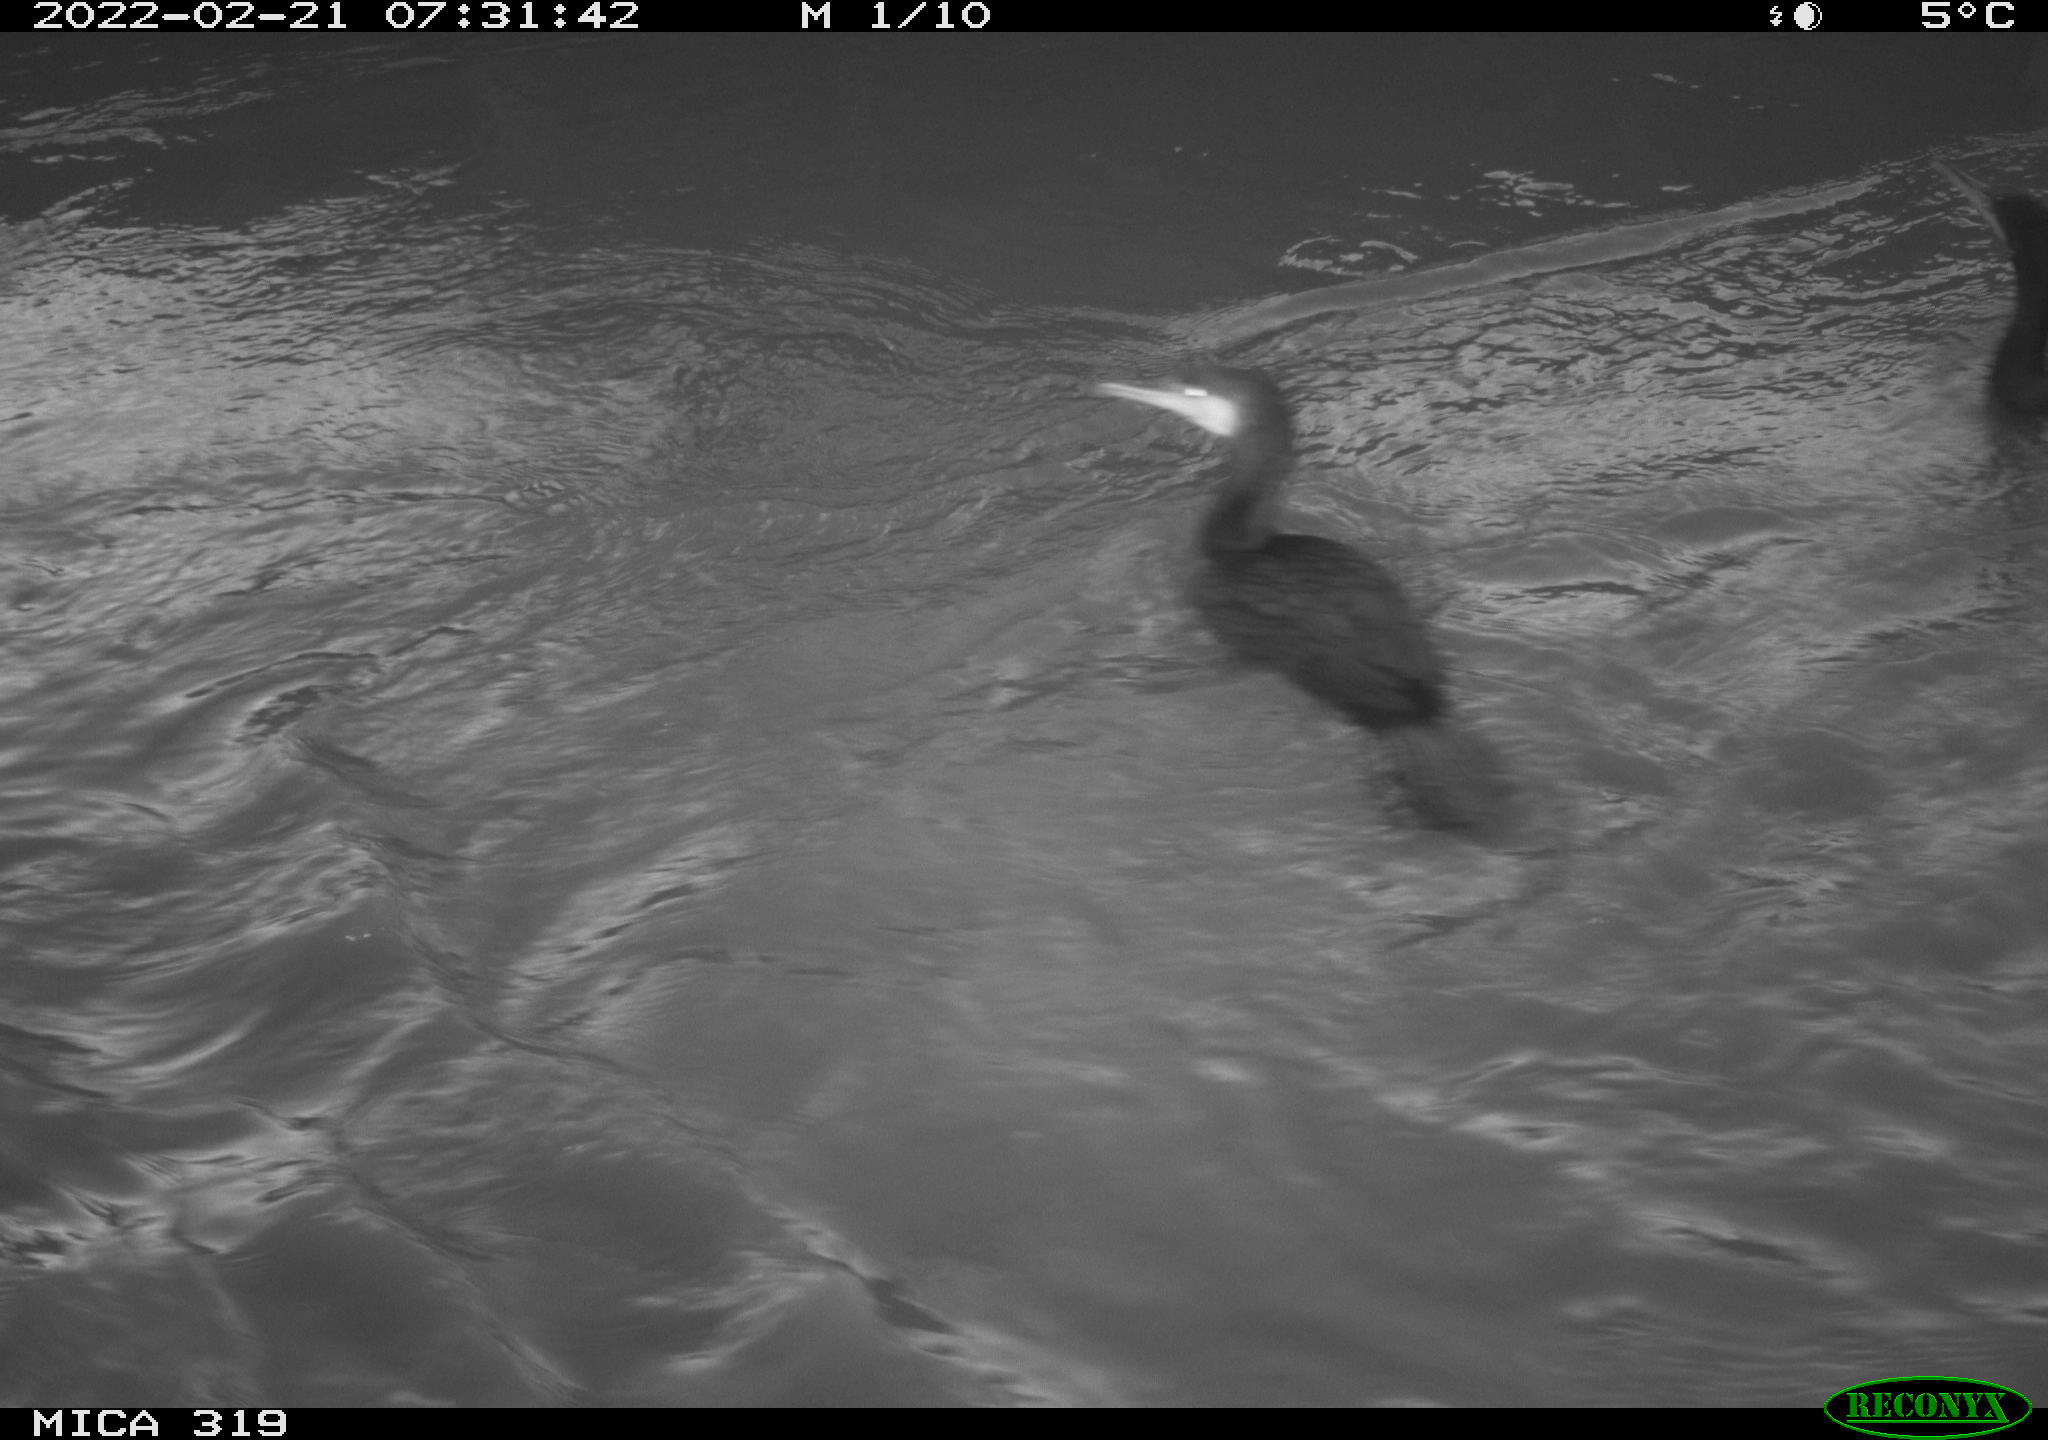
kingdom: Animalia
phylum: Chordata
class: Aves
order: Suliformes
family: Phalacrocoracidae
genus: Phalacrocorax
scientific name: Phalacrocorax carbo
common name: Great cormorant
